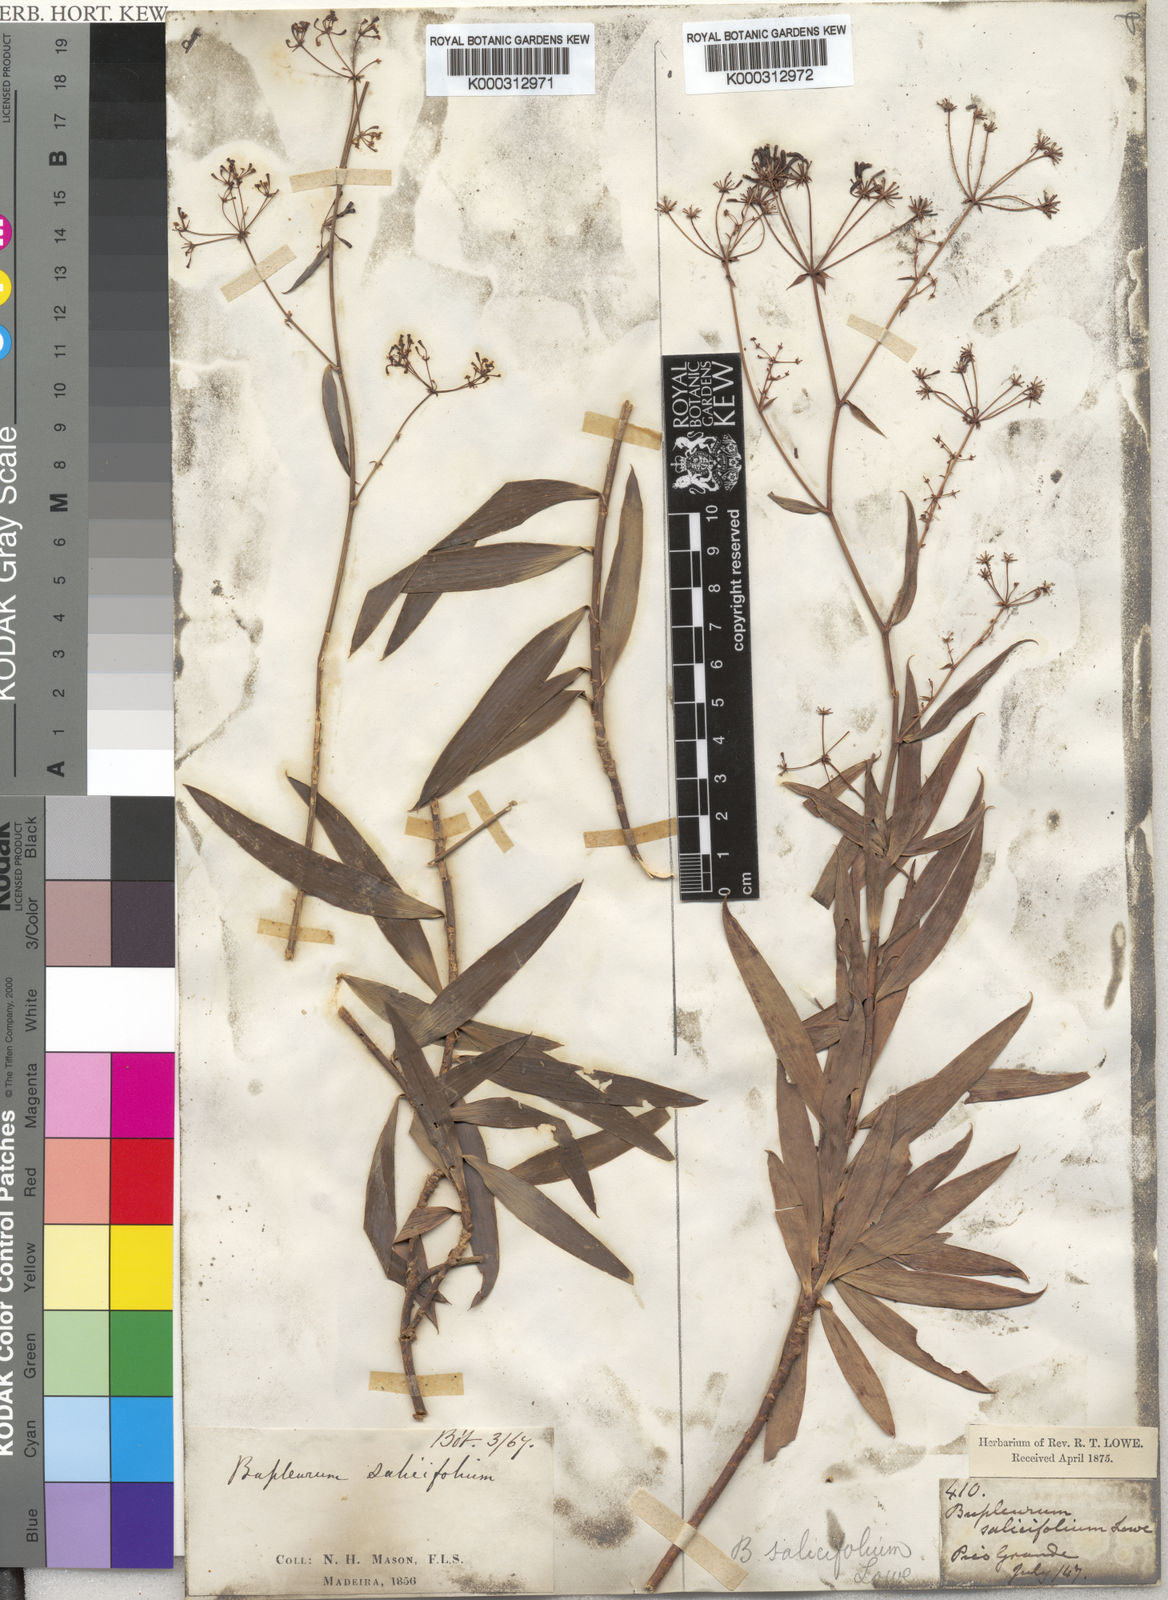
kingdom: Plantae
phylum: Tracheophyta
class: Magnoliopsida
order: Apiales
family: Apiaceae
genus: Bupleurum
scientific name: Bupleurum
